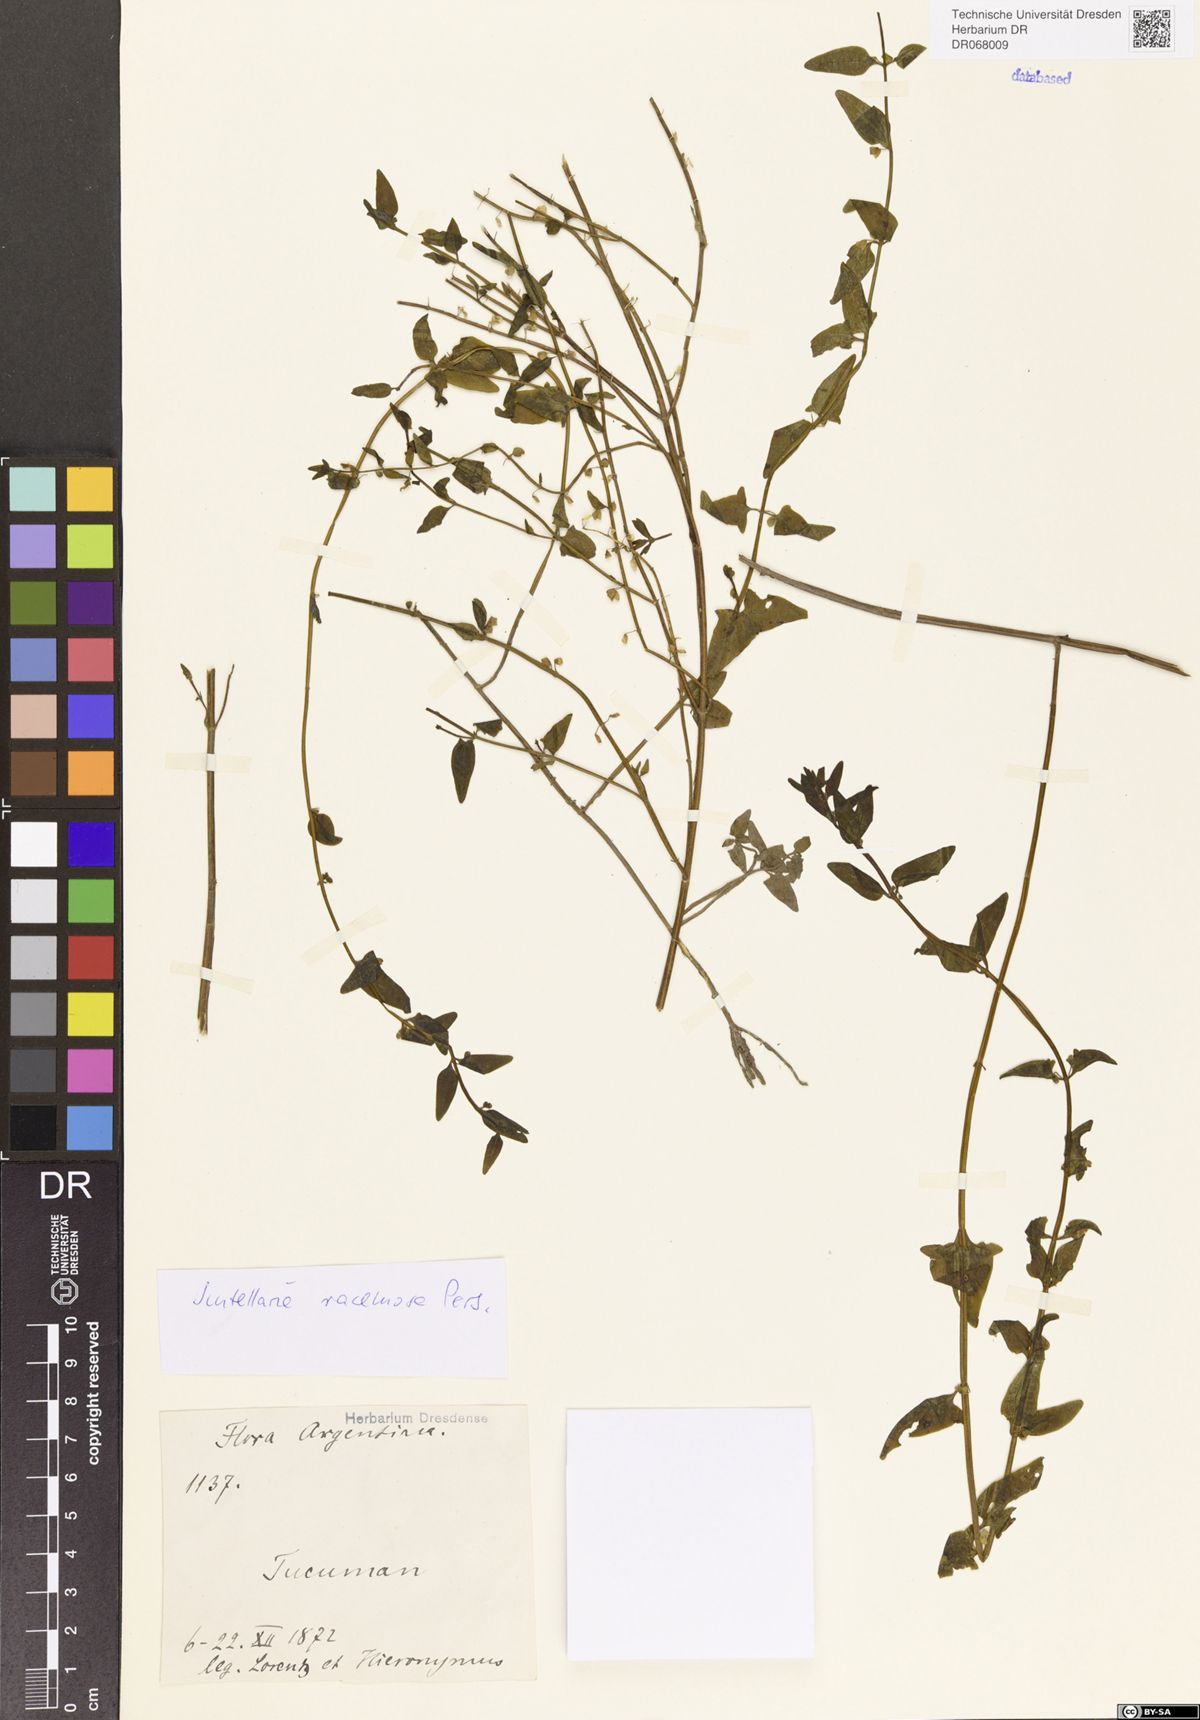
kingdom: Plantae
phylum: Tracheophyta
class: Magnoliopsida
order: Lamiales
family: Lamiaceae
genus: Scutellaria
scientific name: Scutellaria racemosa
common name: South american skullcap
